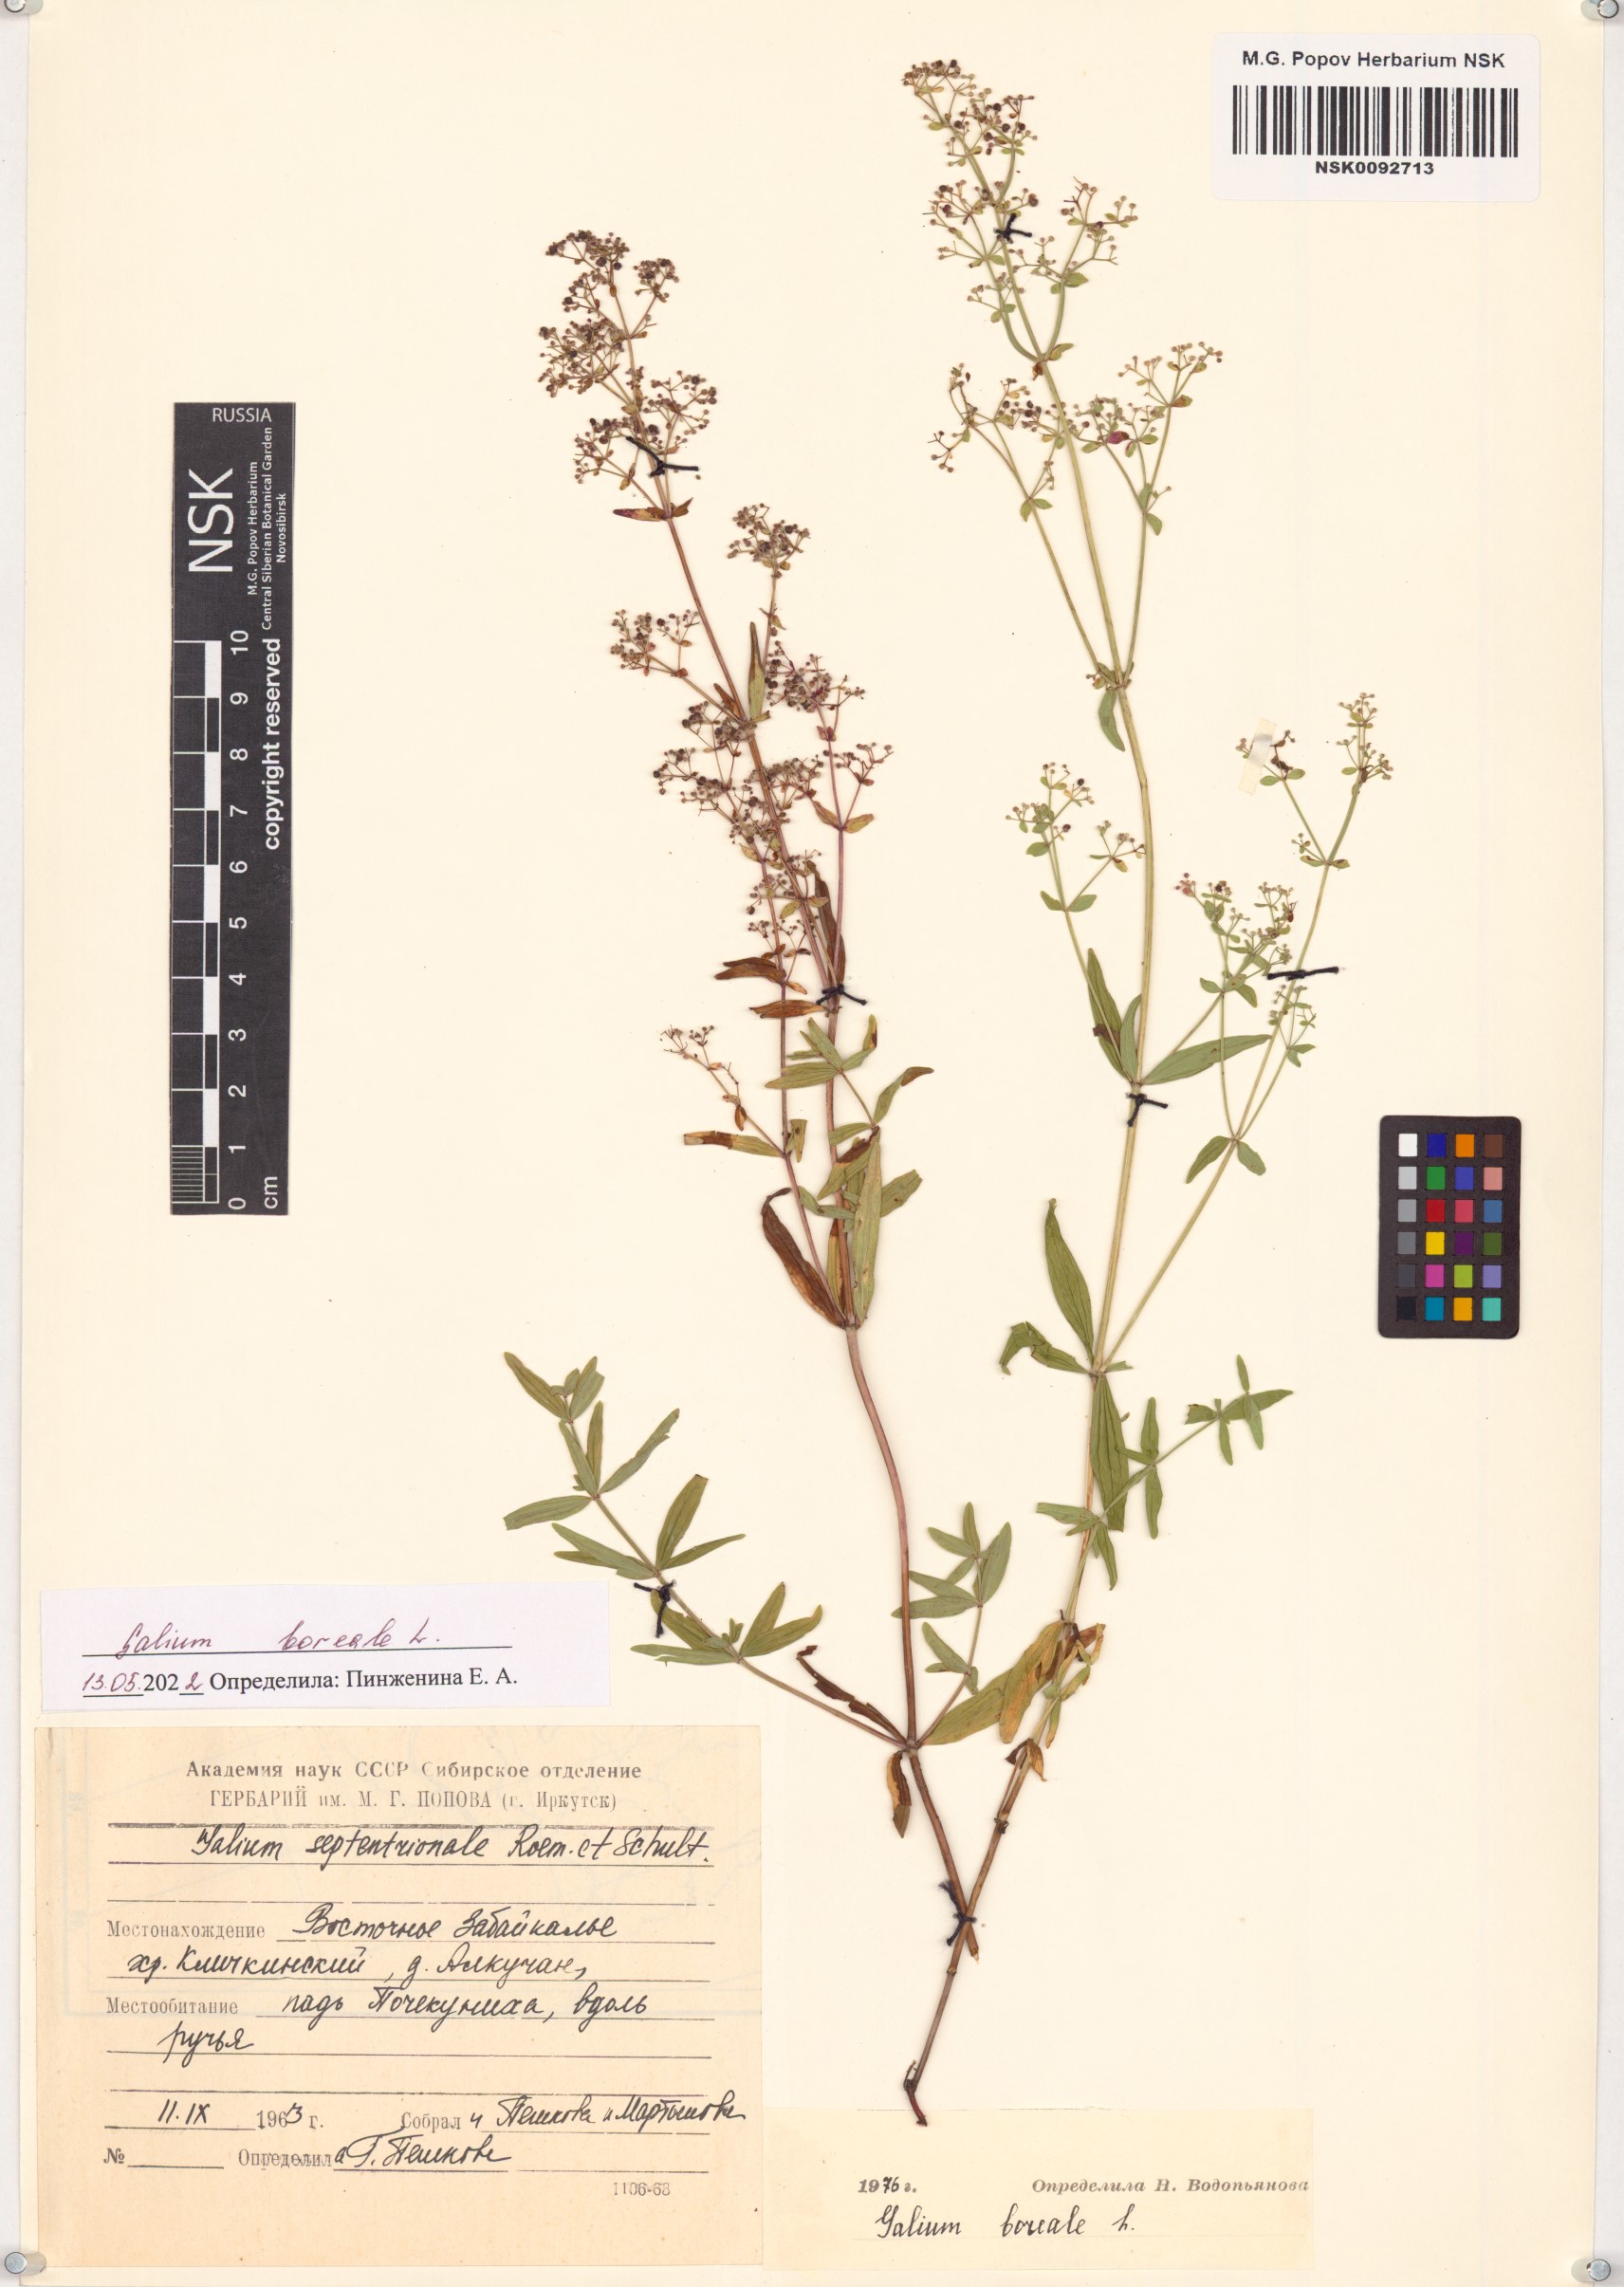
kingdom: Plantae
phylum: Tracheophyta
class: Magnoliopsida
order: Gentianales
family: Rubiaceae
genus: Galium
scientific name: Galium boreale
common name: Northern bedstraw
